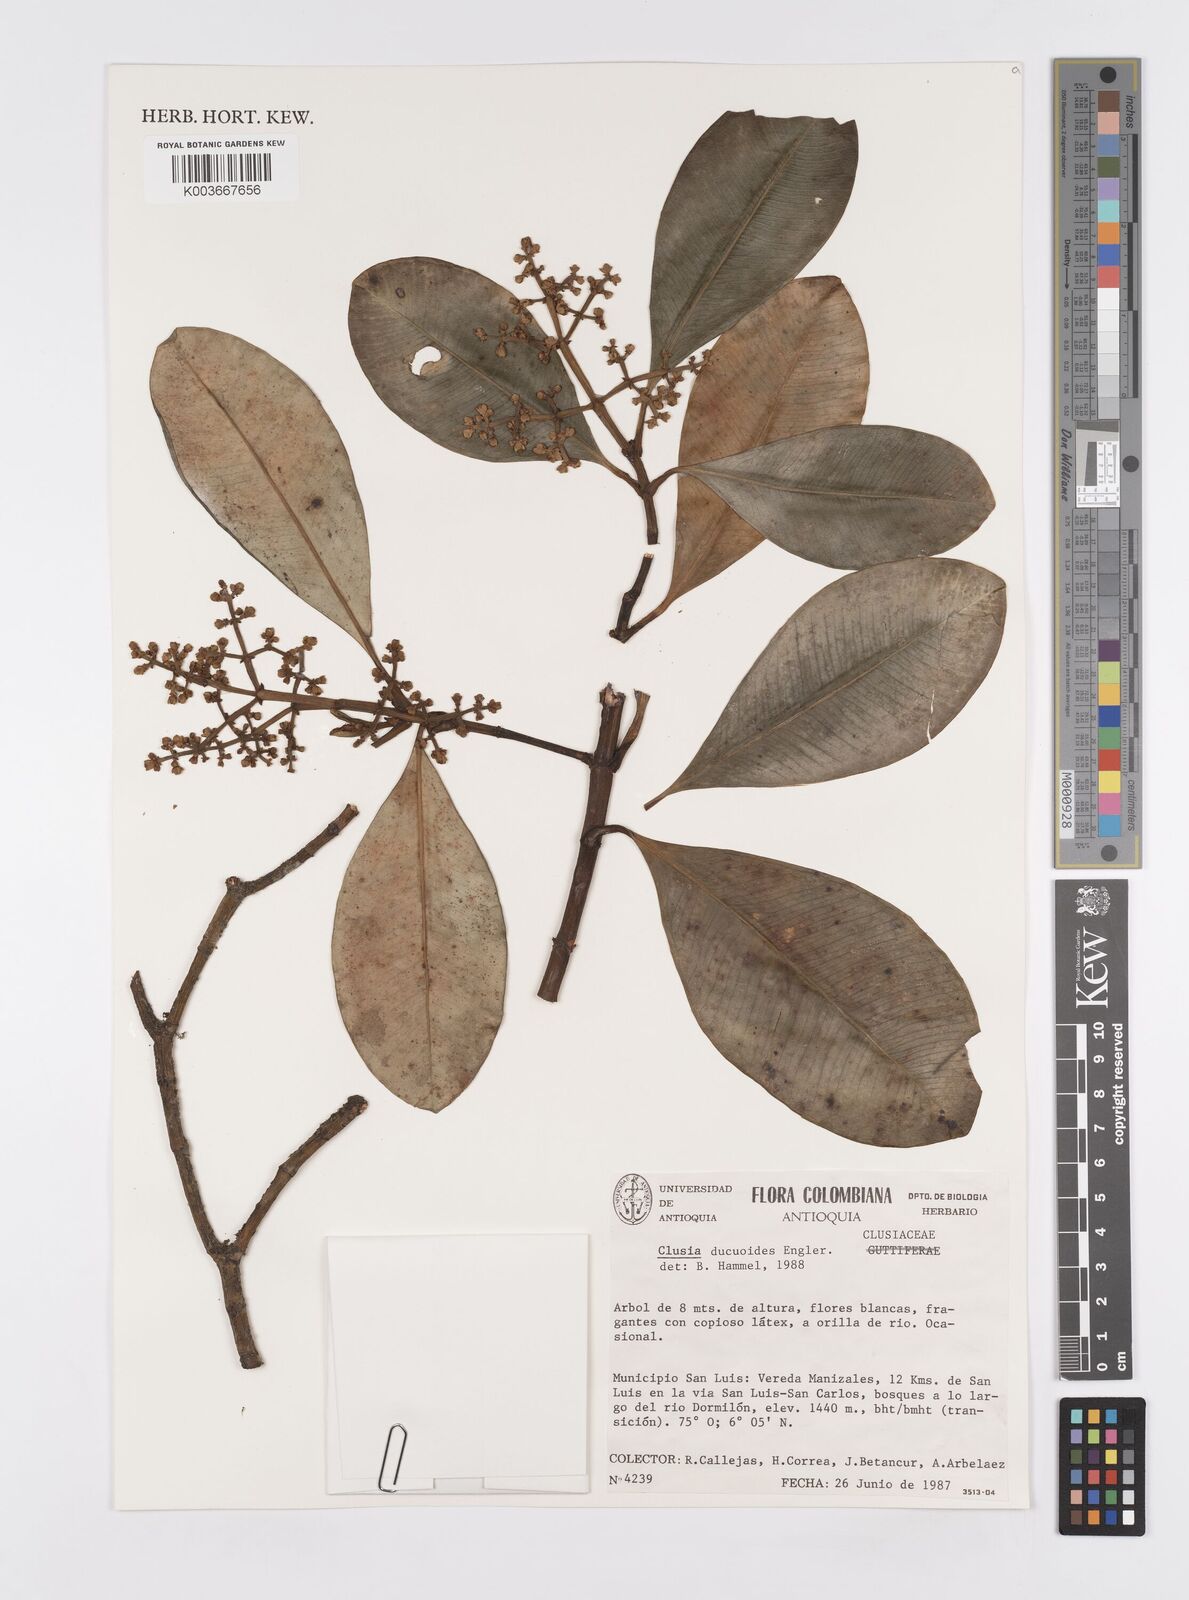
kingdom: Plantae
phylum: Tracheophyta
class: Magnoliopsida
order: Malpighiales
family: Clusiaceae
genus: Clusia
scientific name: Clusia ducuoides
